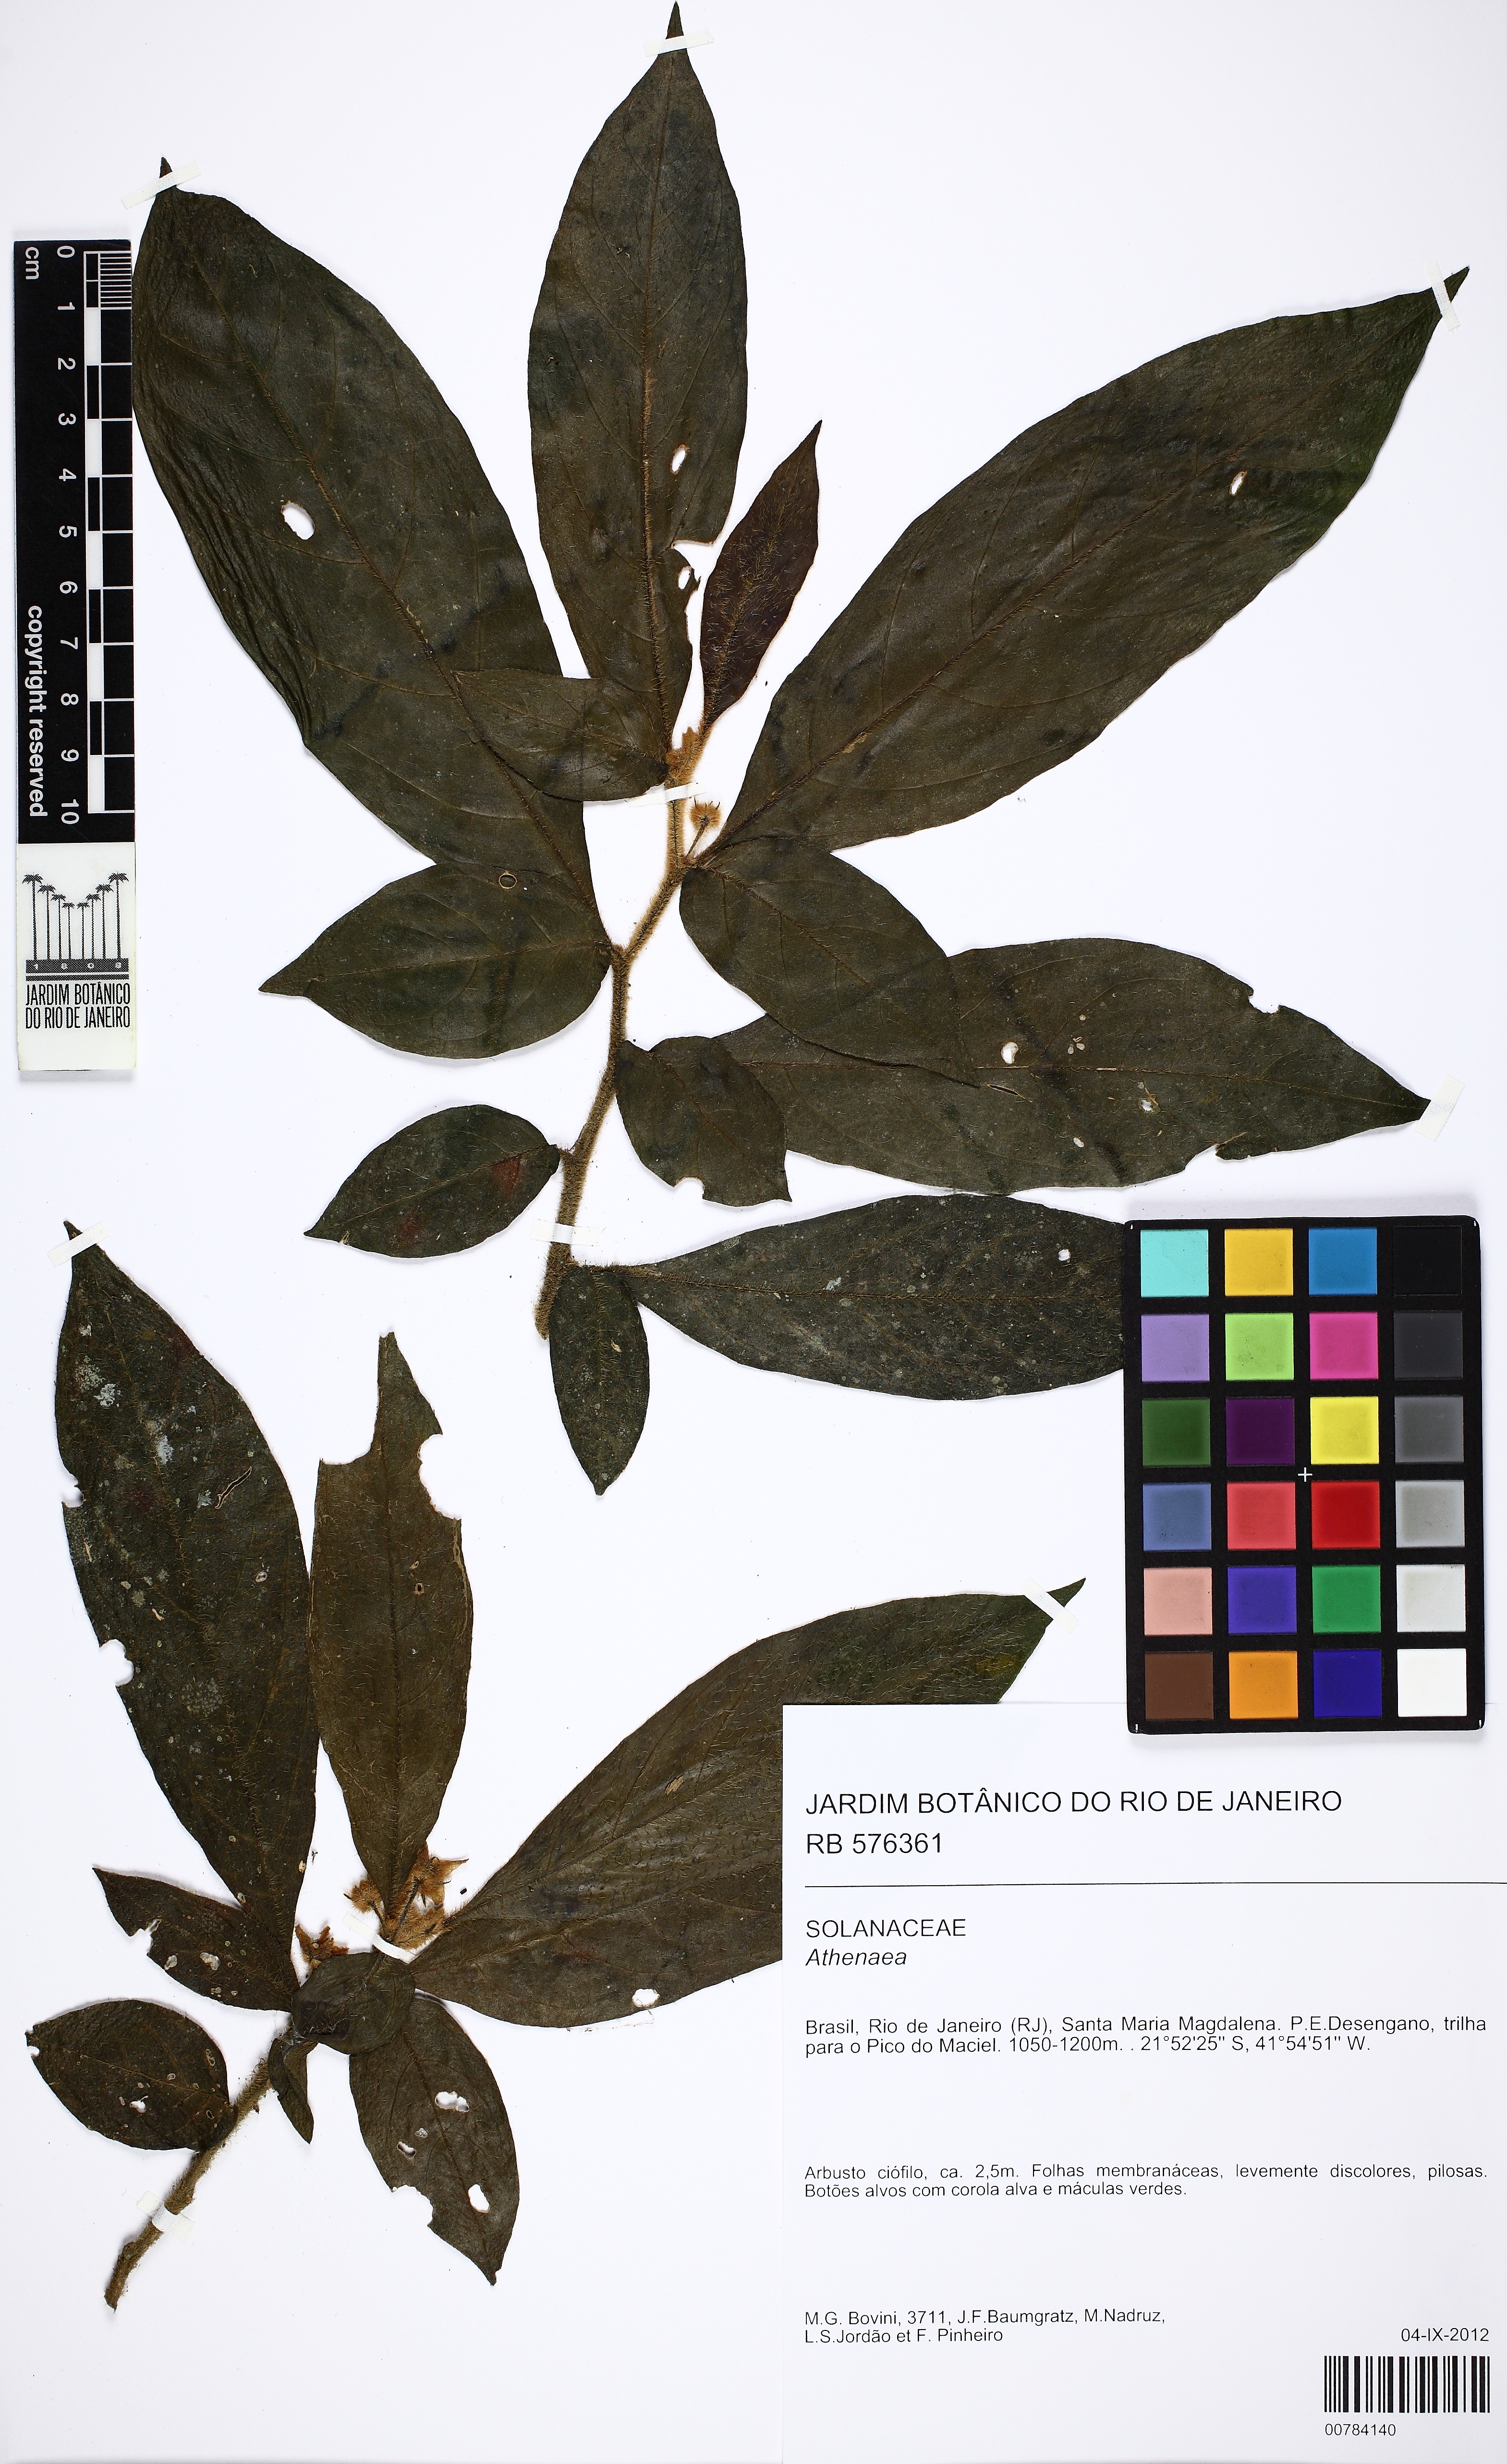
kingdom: Plantae
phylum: Tracheophyta
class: Magnoliopsida
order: Solanales
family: Solanaceae
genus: Athenaea
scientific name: Athenaea
